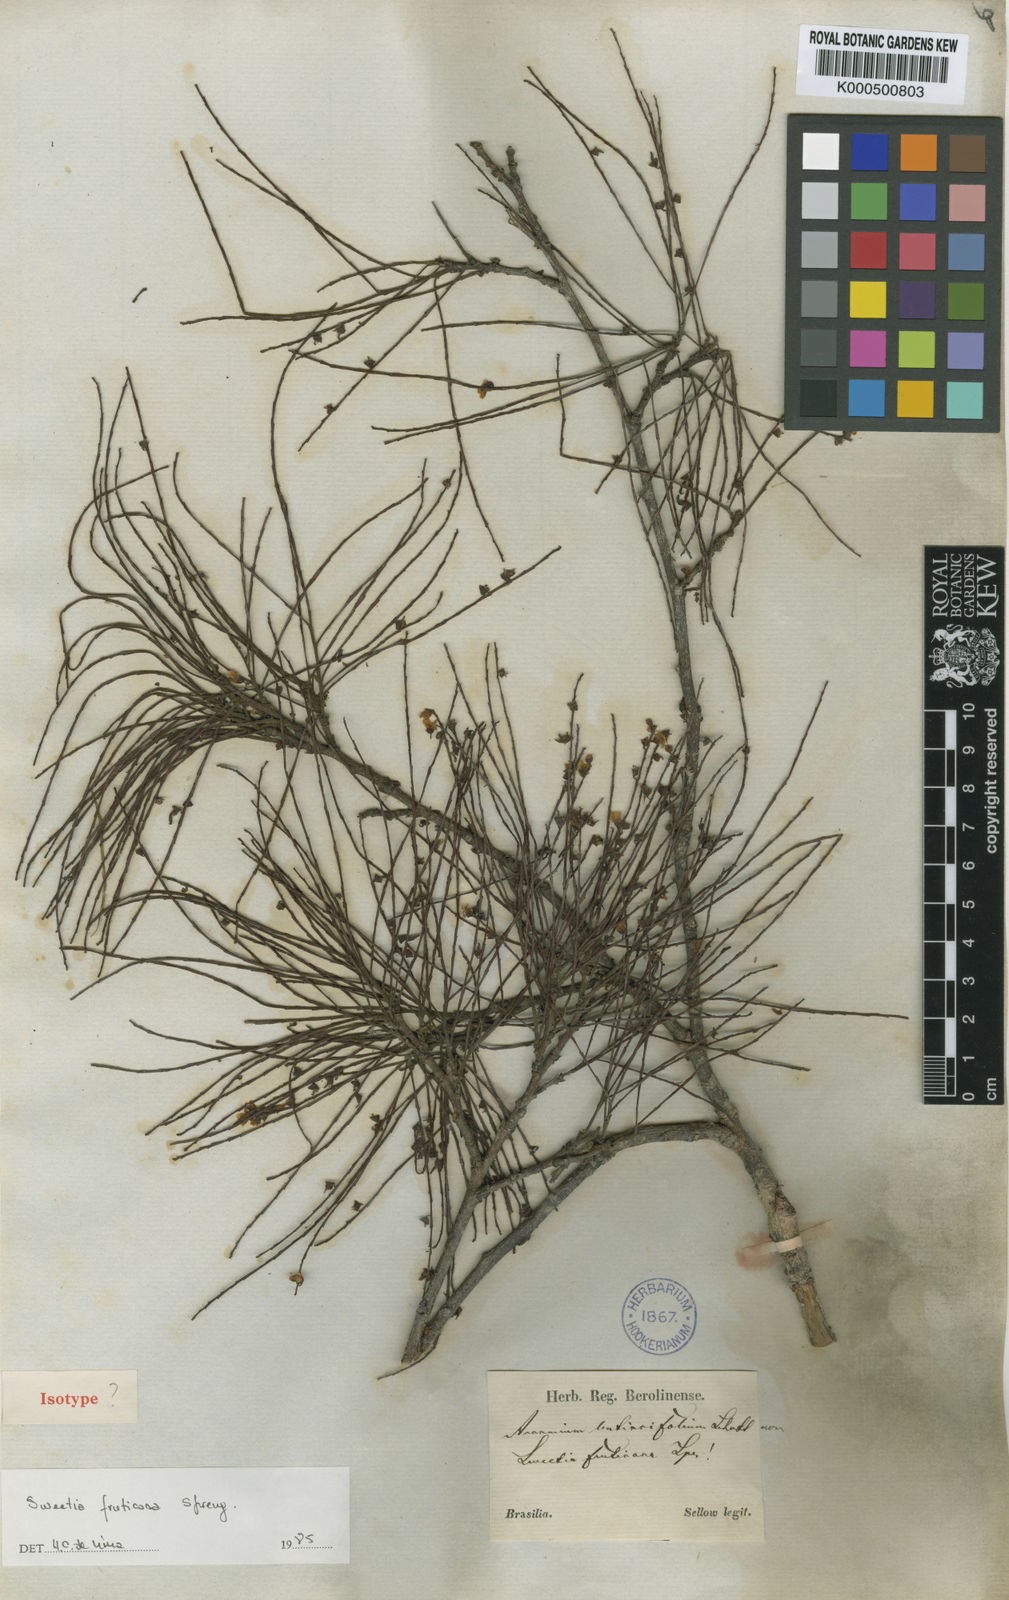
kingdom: Plantae
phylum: Tracheophyta
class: Magnoliopsida
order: Fabales
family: Fabaceae
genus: Sweetia
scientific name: Sweetia fruticosa
